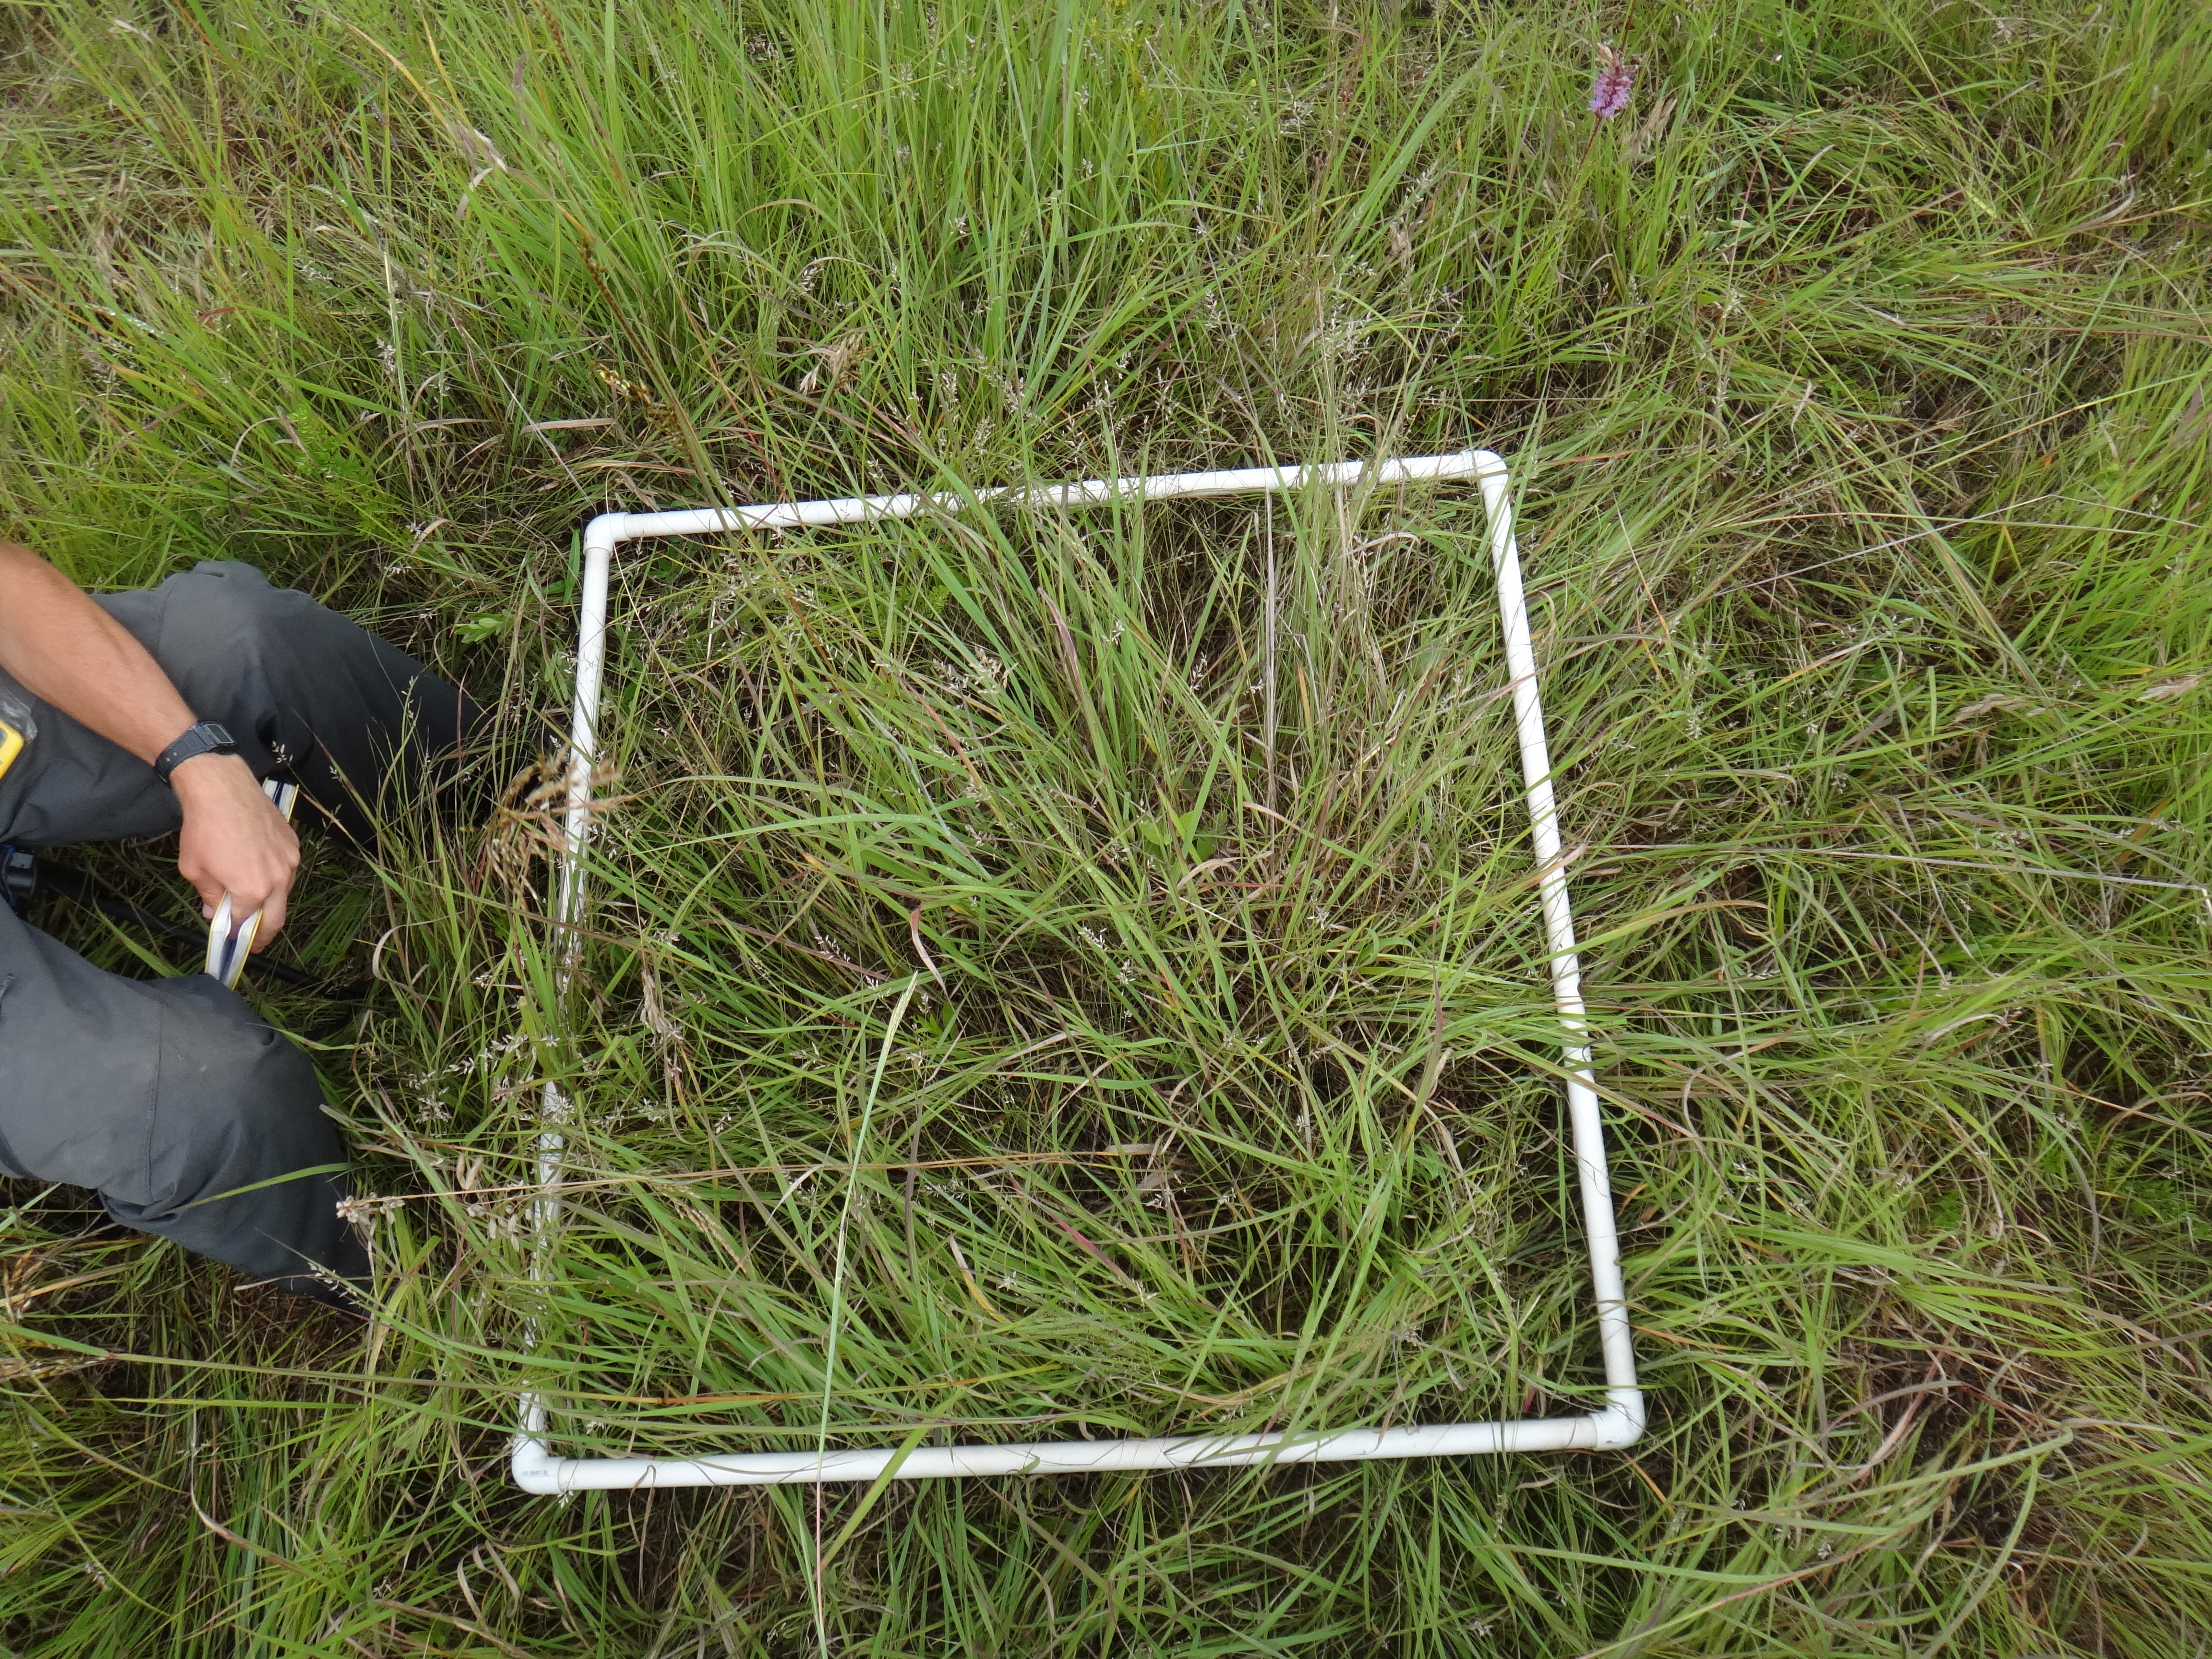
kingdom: Plantae
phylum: Tracheophyta
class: Magnoliopsida
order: Apiales
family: Apiaceae
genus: Daucus
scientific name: Daucus carota
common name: Wild carrot
